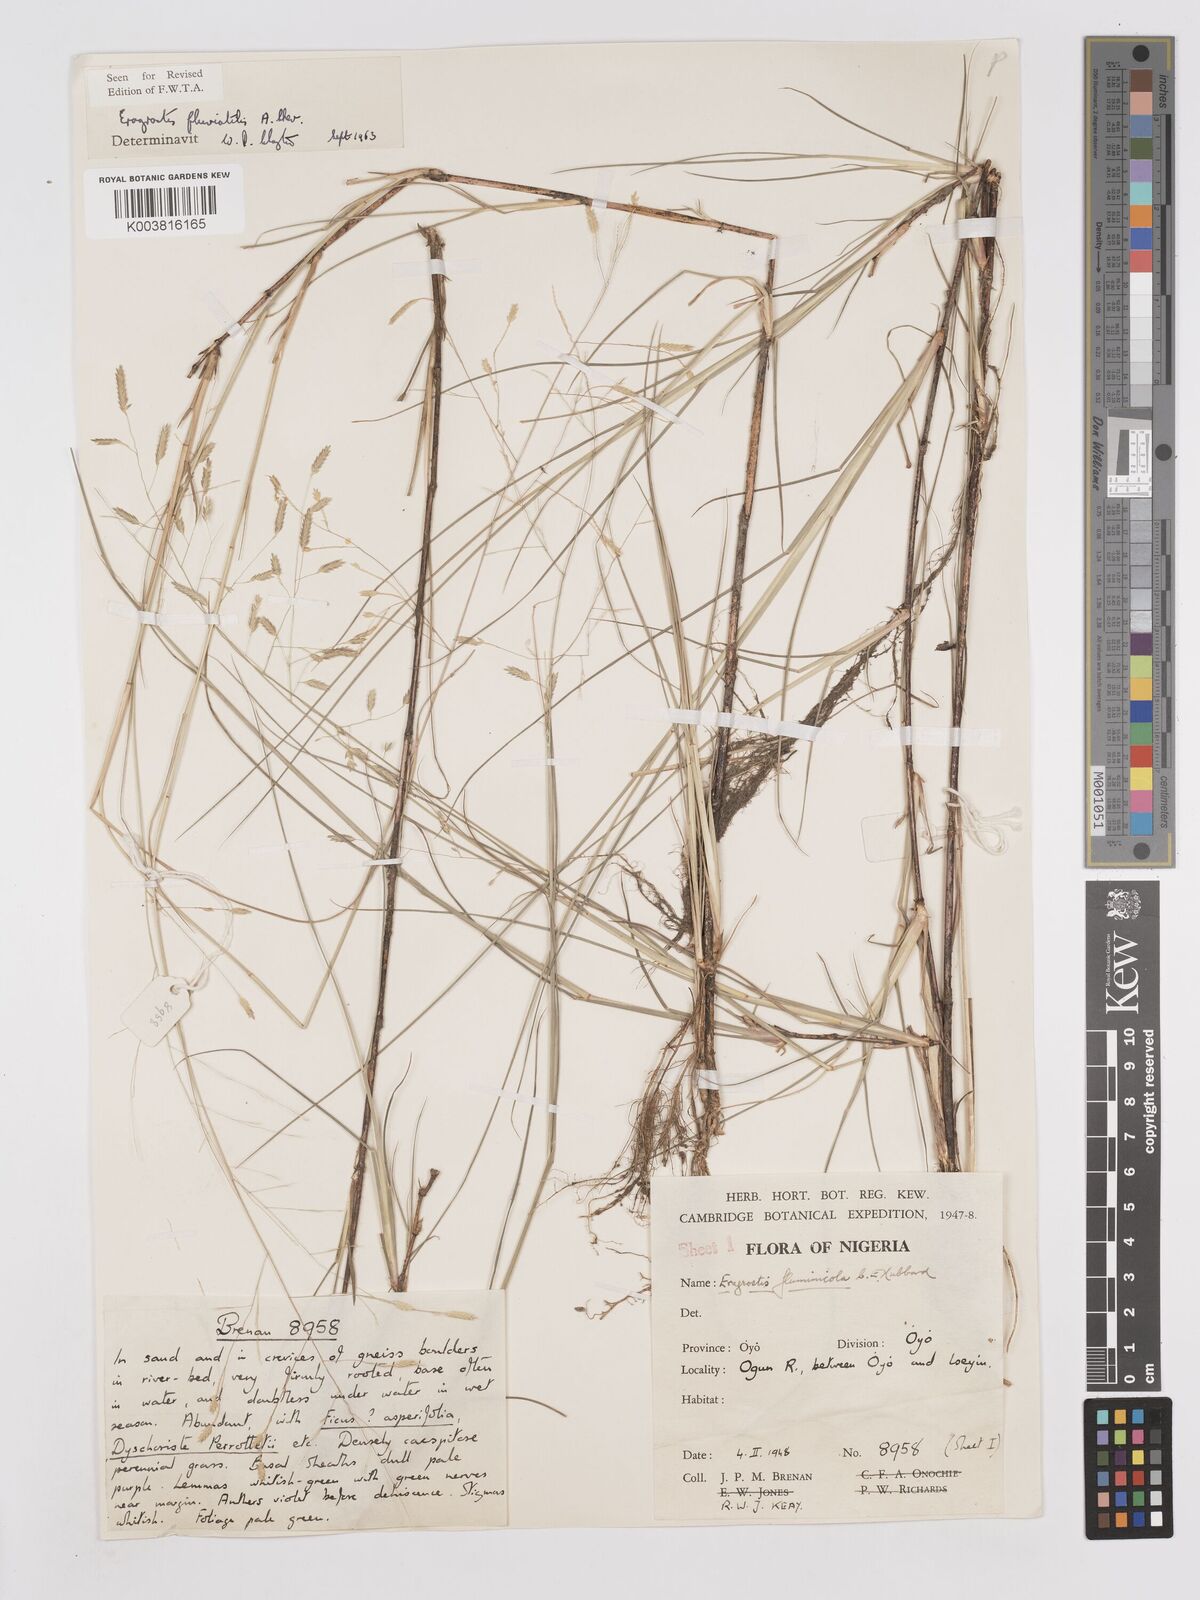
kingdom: Plantae
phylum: Tracheophyta
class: Liliopsida
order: Poales
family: Poaceae
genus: Eragrostis
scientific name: Eragrostis barteri
